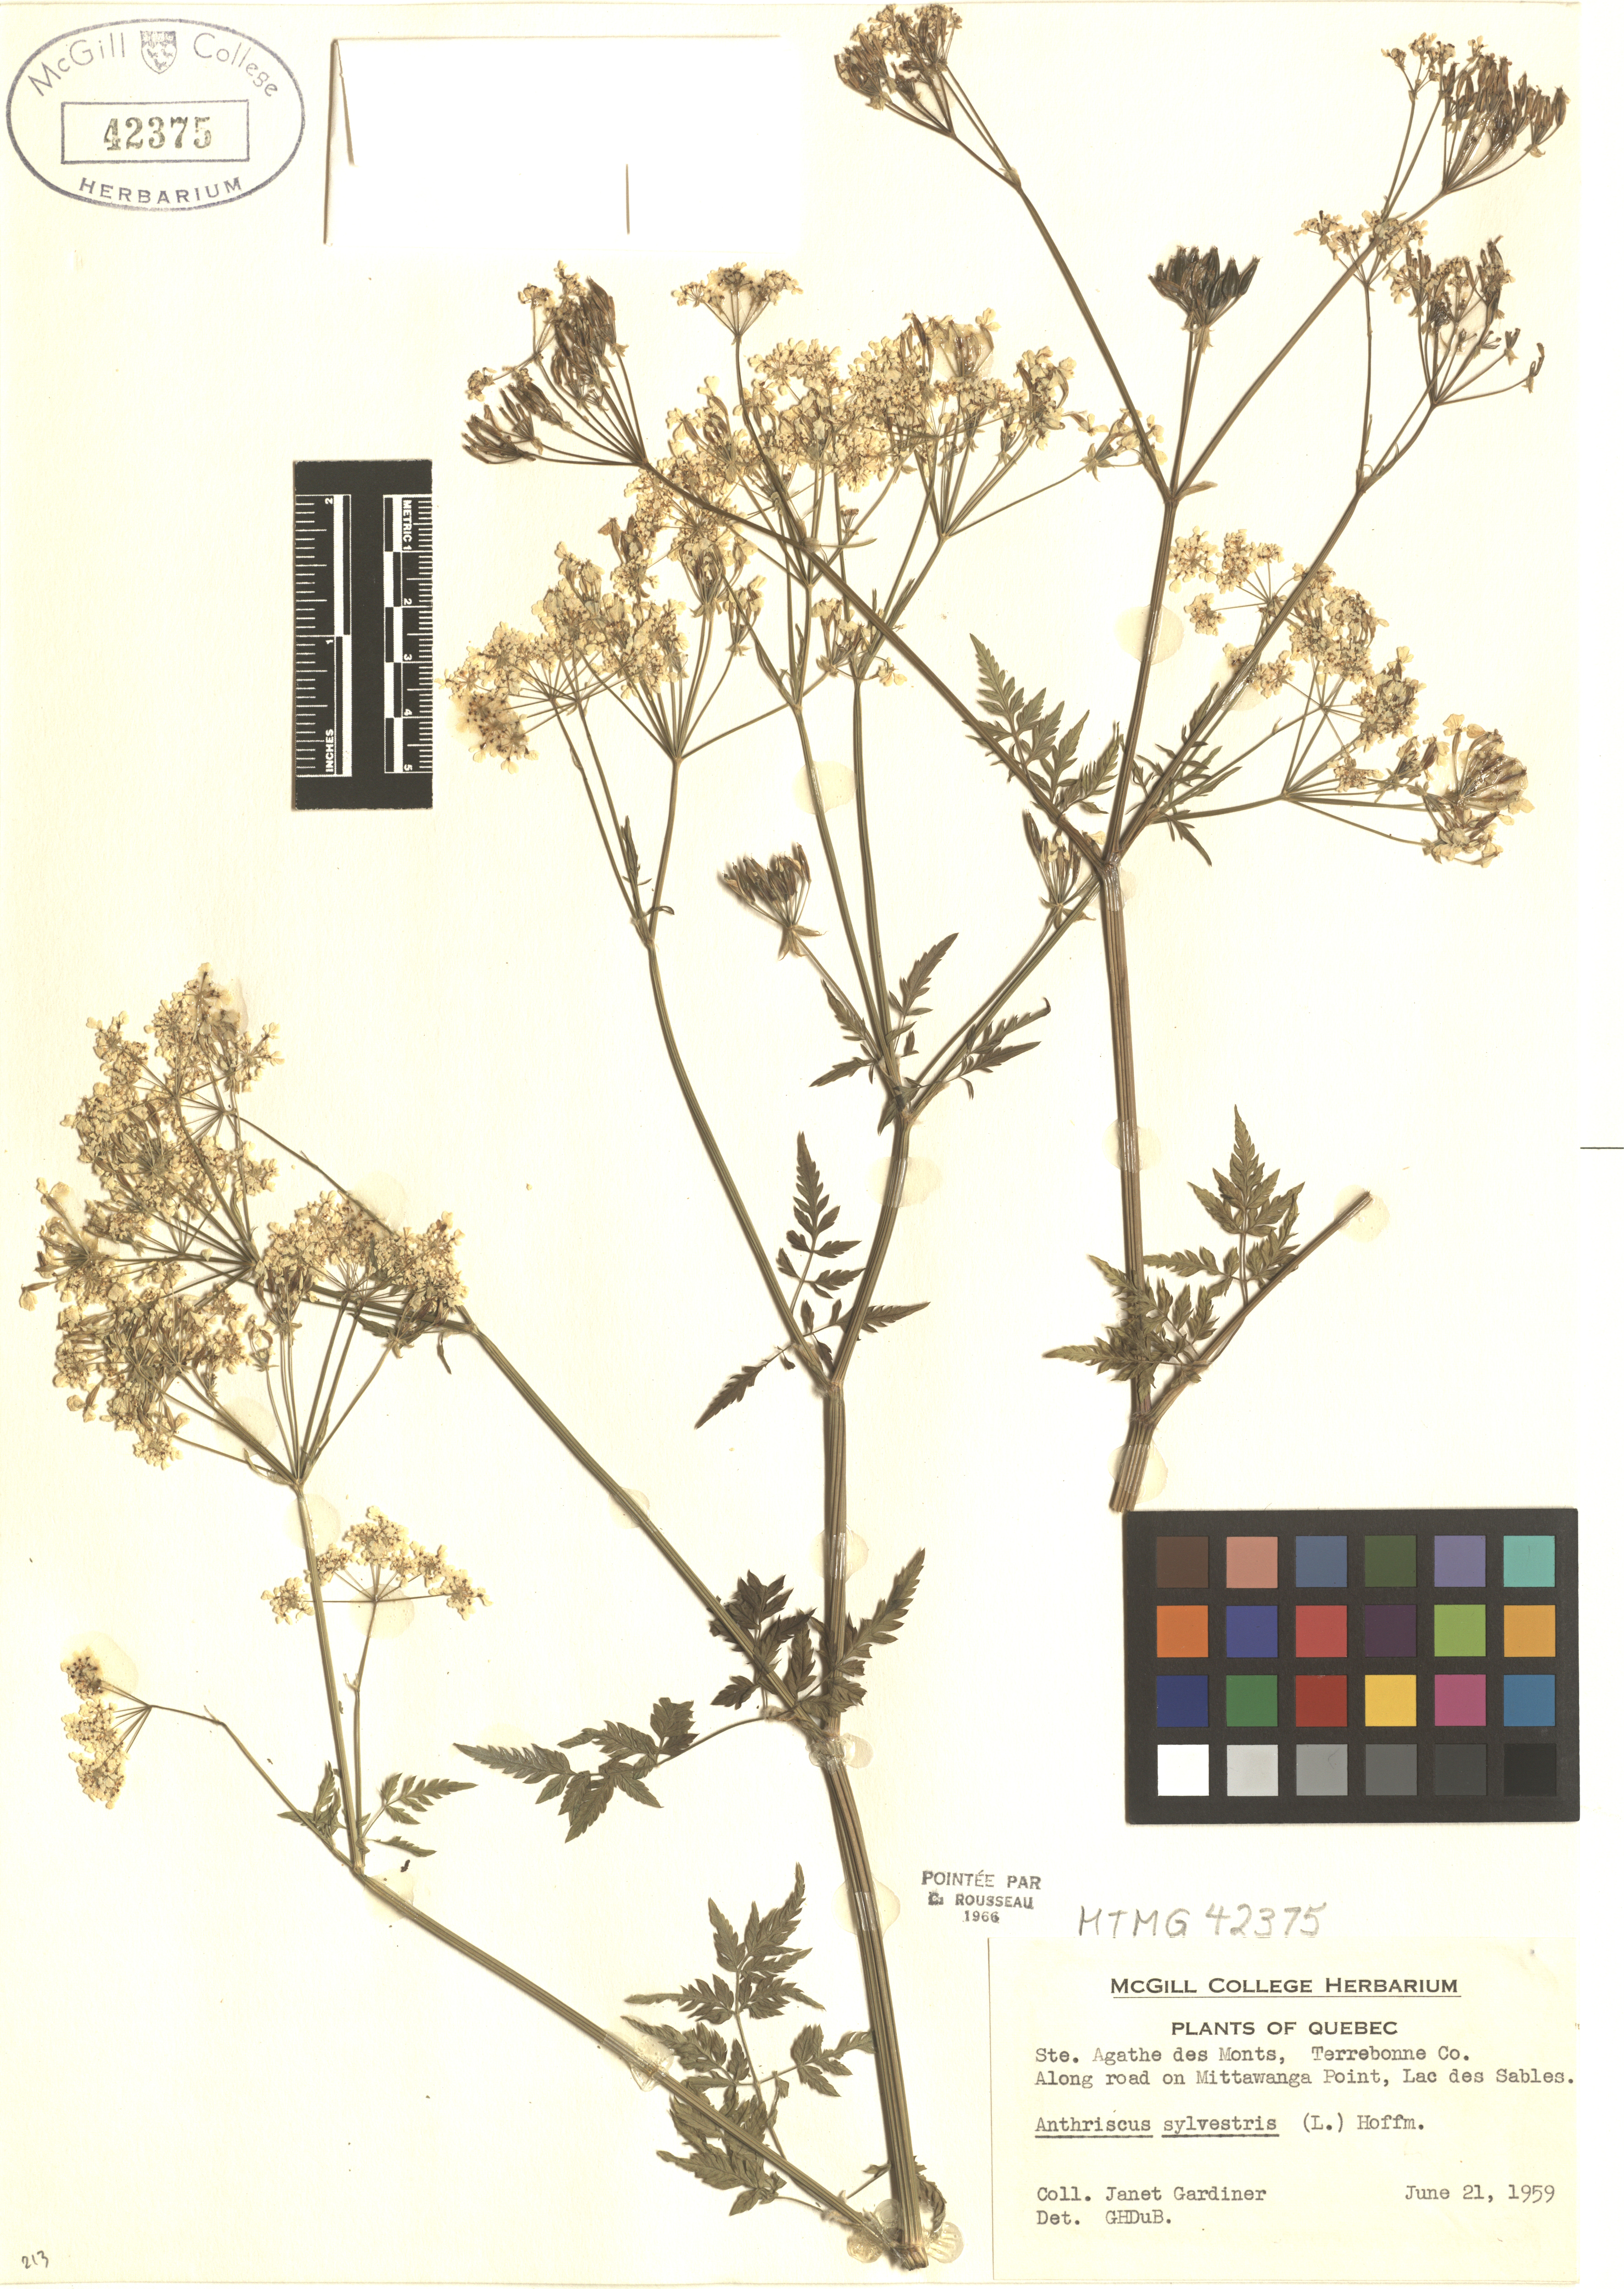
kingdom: Plantae
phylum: Tracheophyta
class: Magnoliopsida
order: Apiales
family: Apiaceae
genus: Anthriscus
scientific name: Anthriscus sylvestris
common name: Cow parsley
